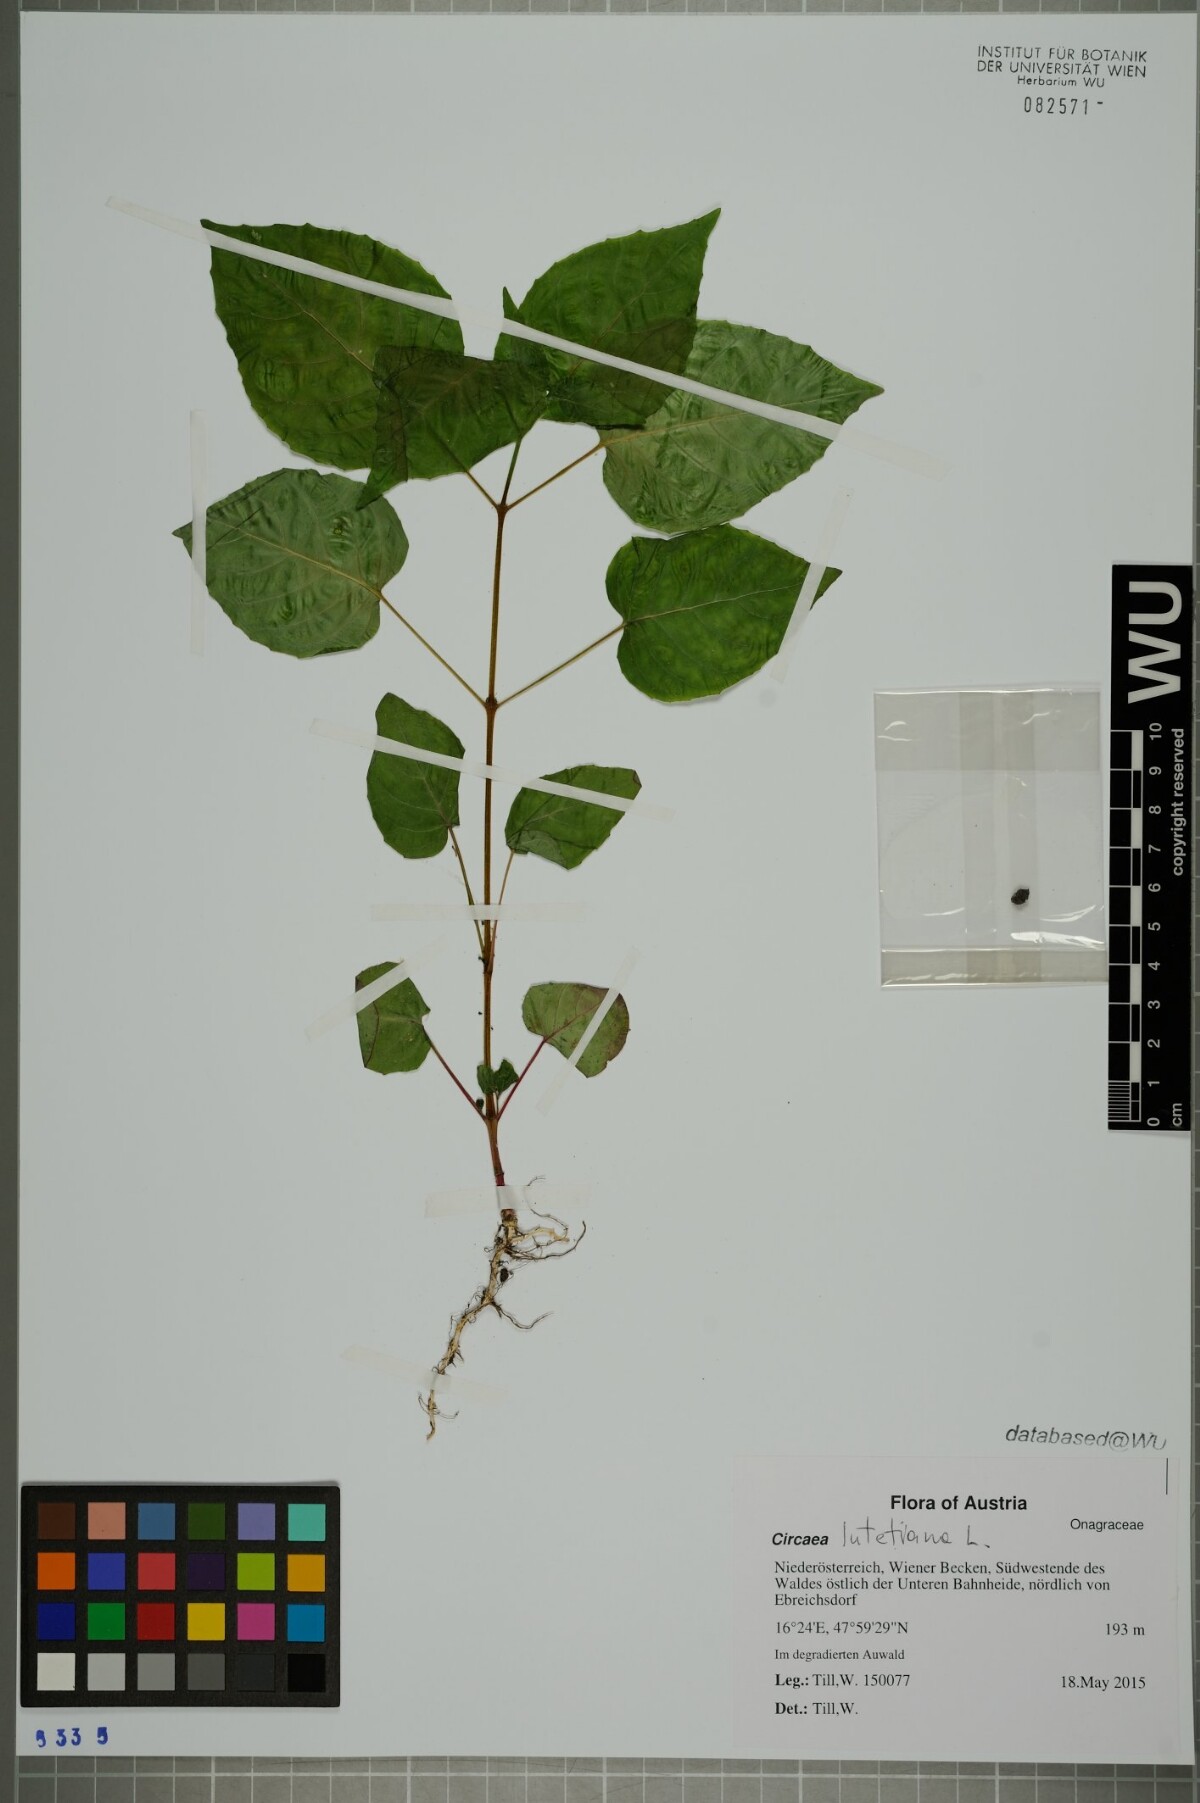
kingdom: Plantae
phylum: Tracheophyta
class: Magnoliopsida
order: Myrtales
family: Onagraceae
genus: Circaea
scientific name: Circaea lutetiana
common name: Enchanter's-nightshade
